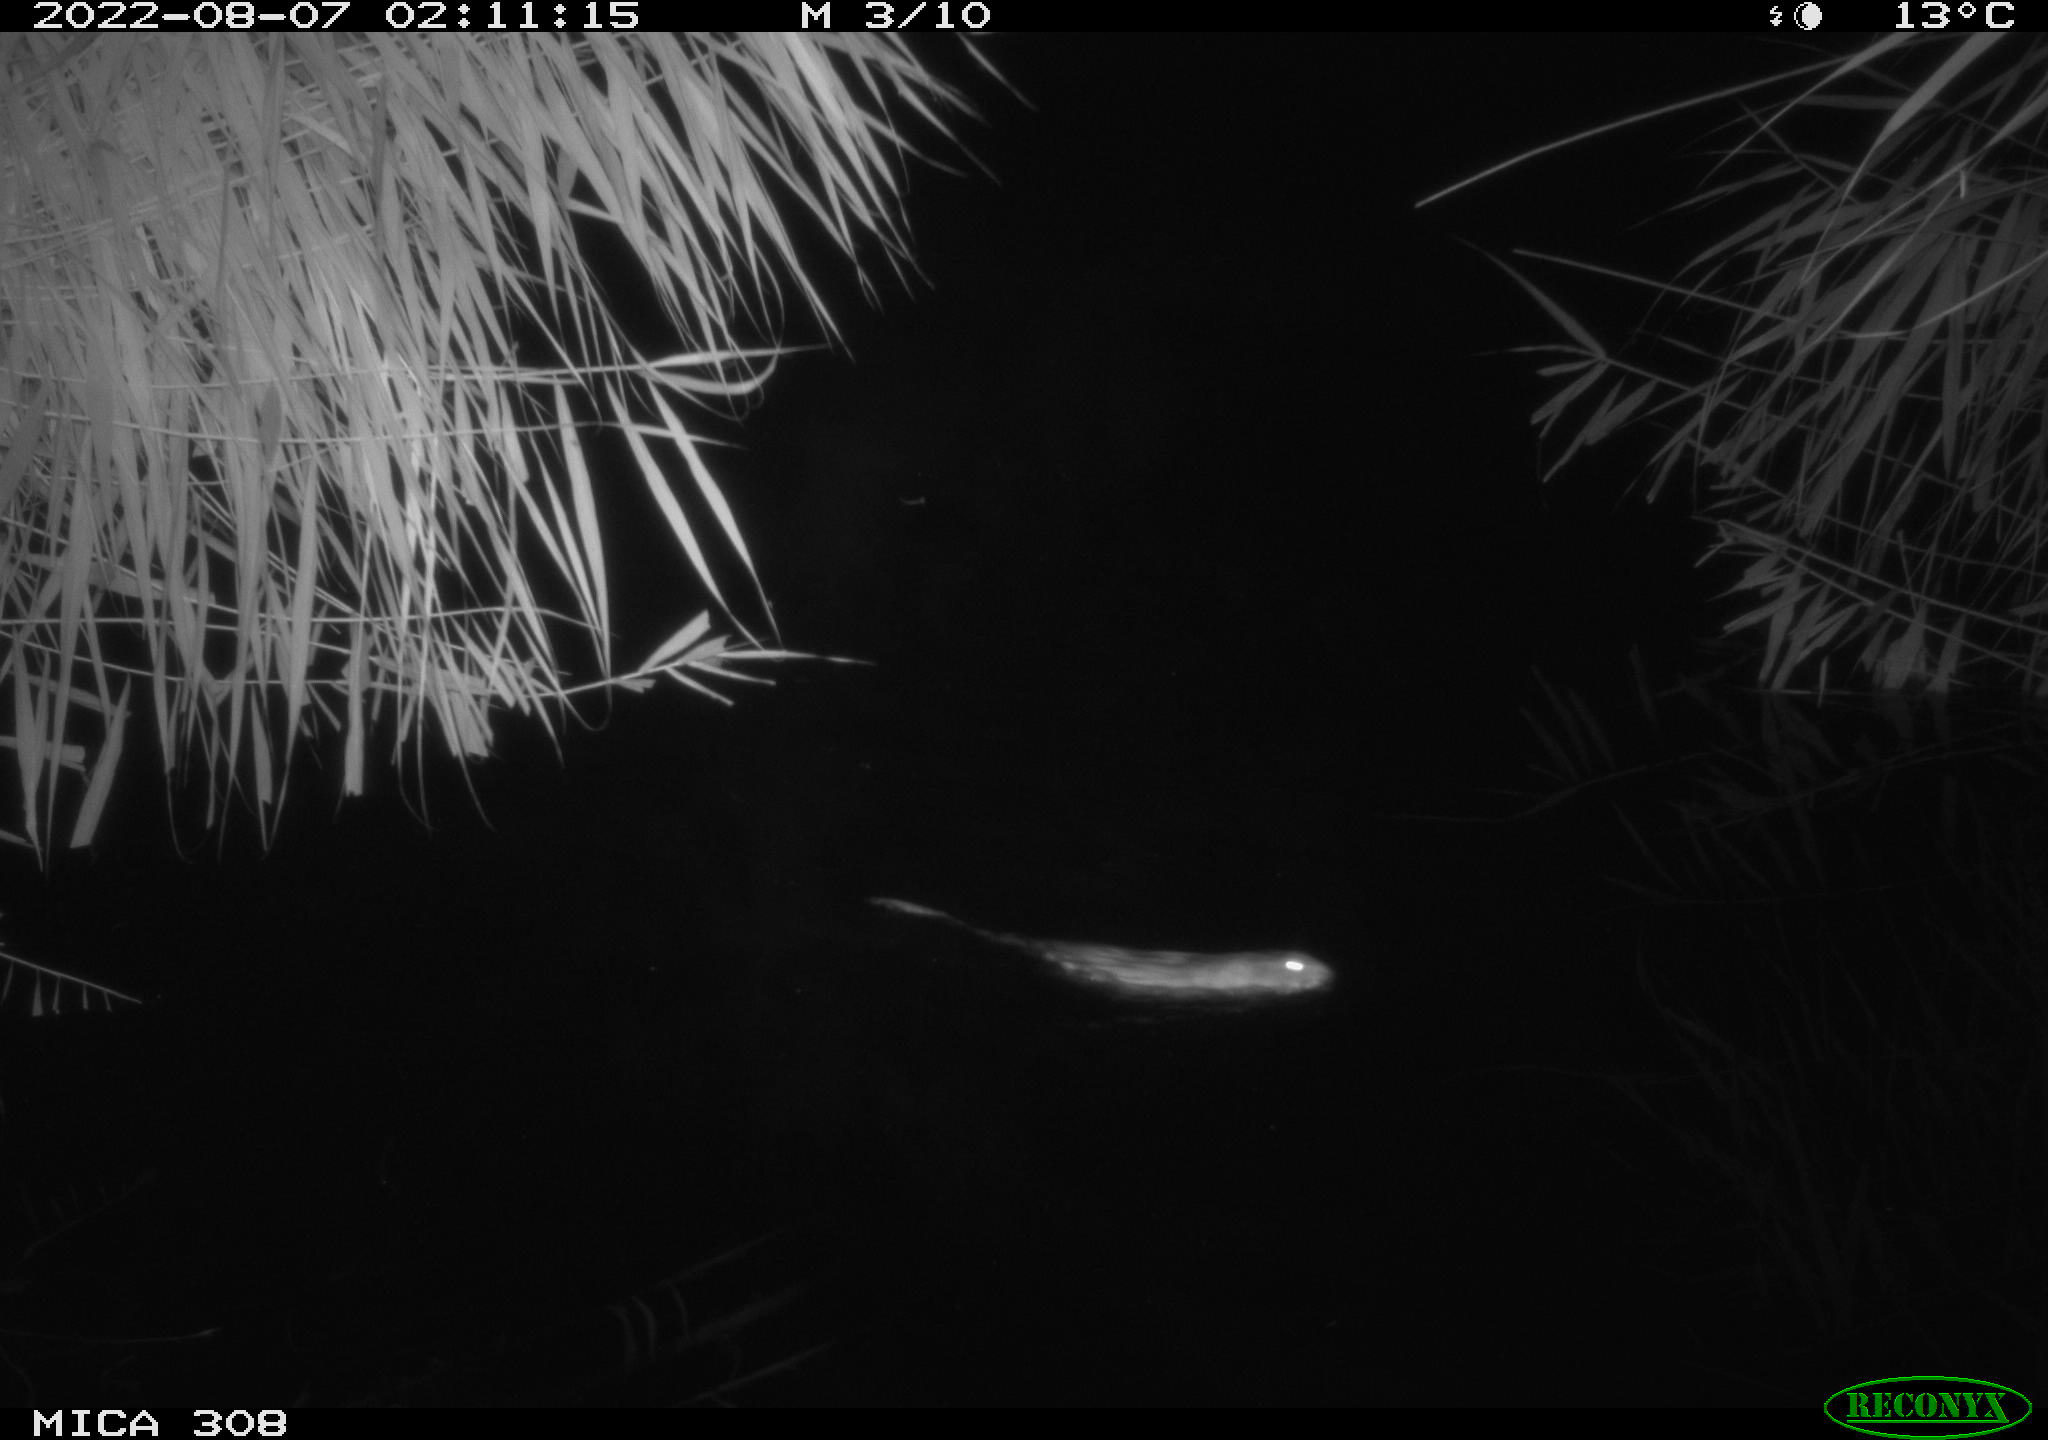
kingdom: Animalia
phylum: Chordata
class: Mammalia
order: Rodentia
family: Cricetidae
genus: Ondatra
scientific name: Ondatra zibethicus
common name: Muskrat
